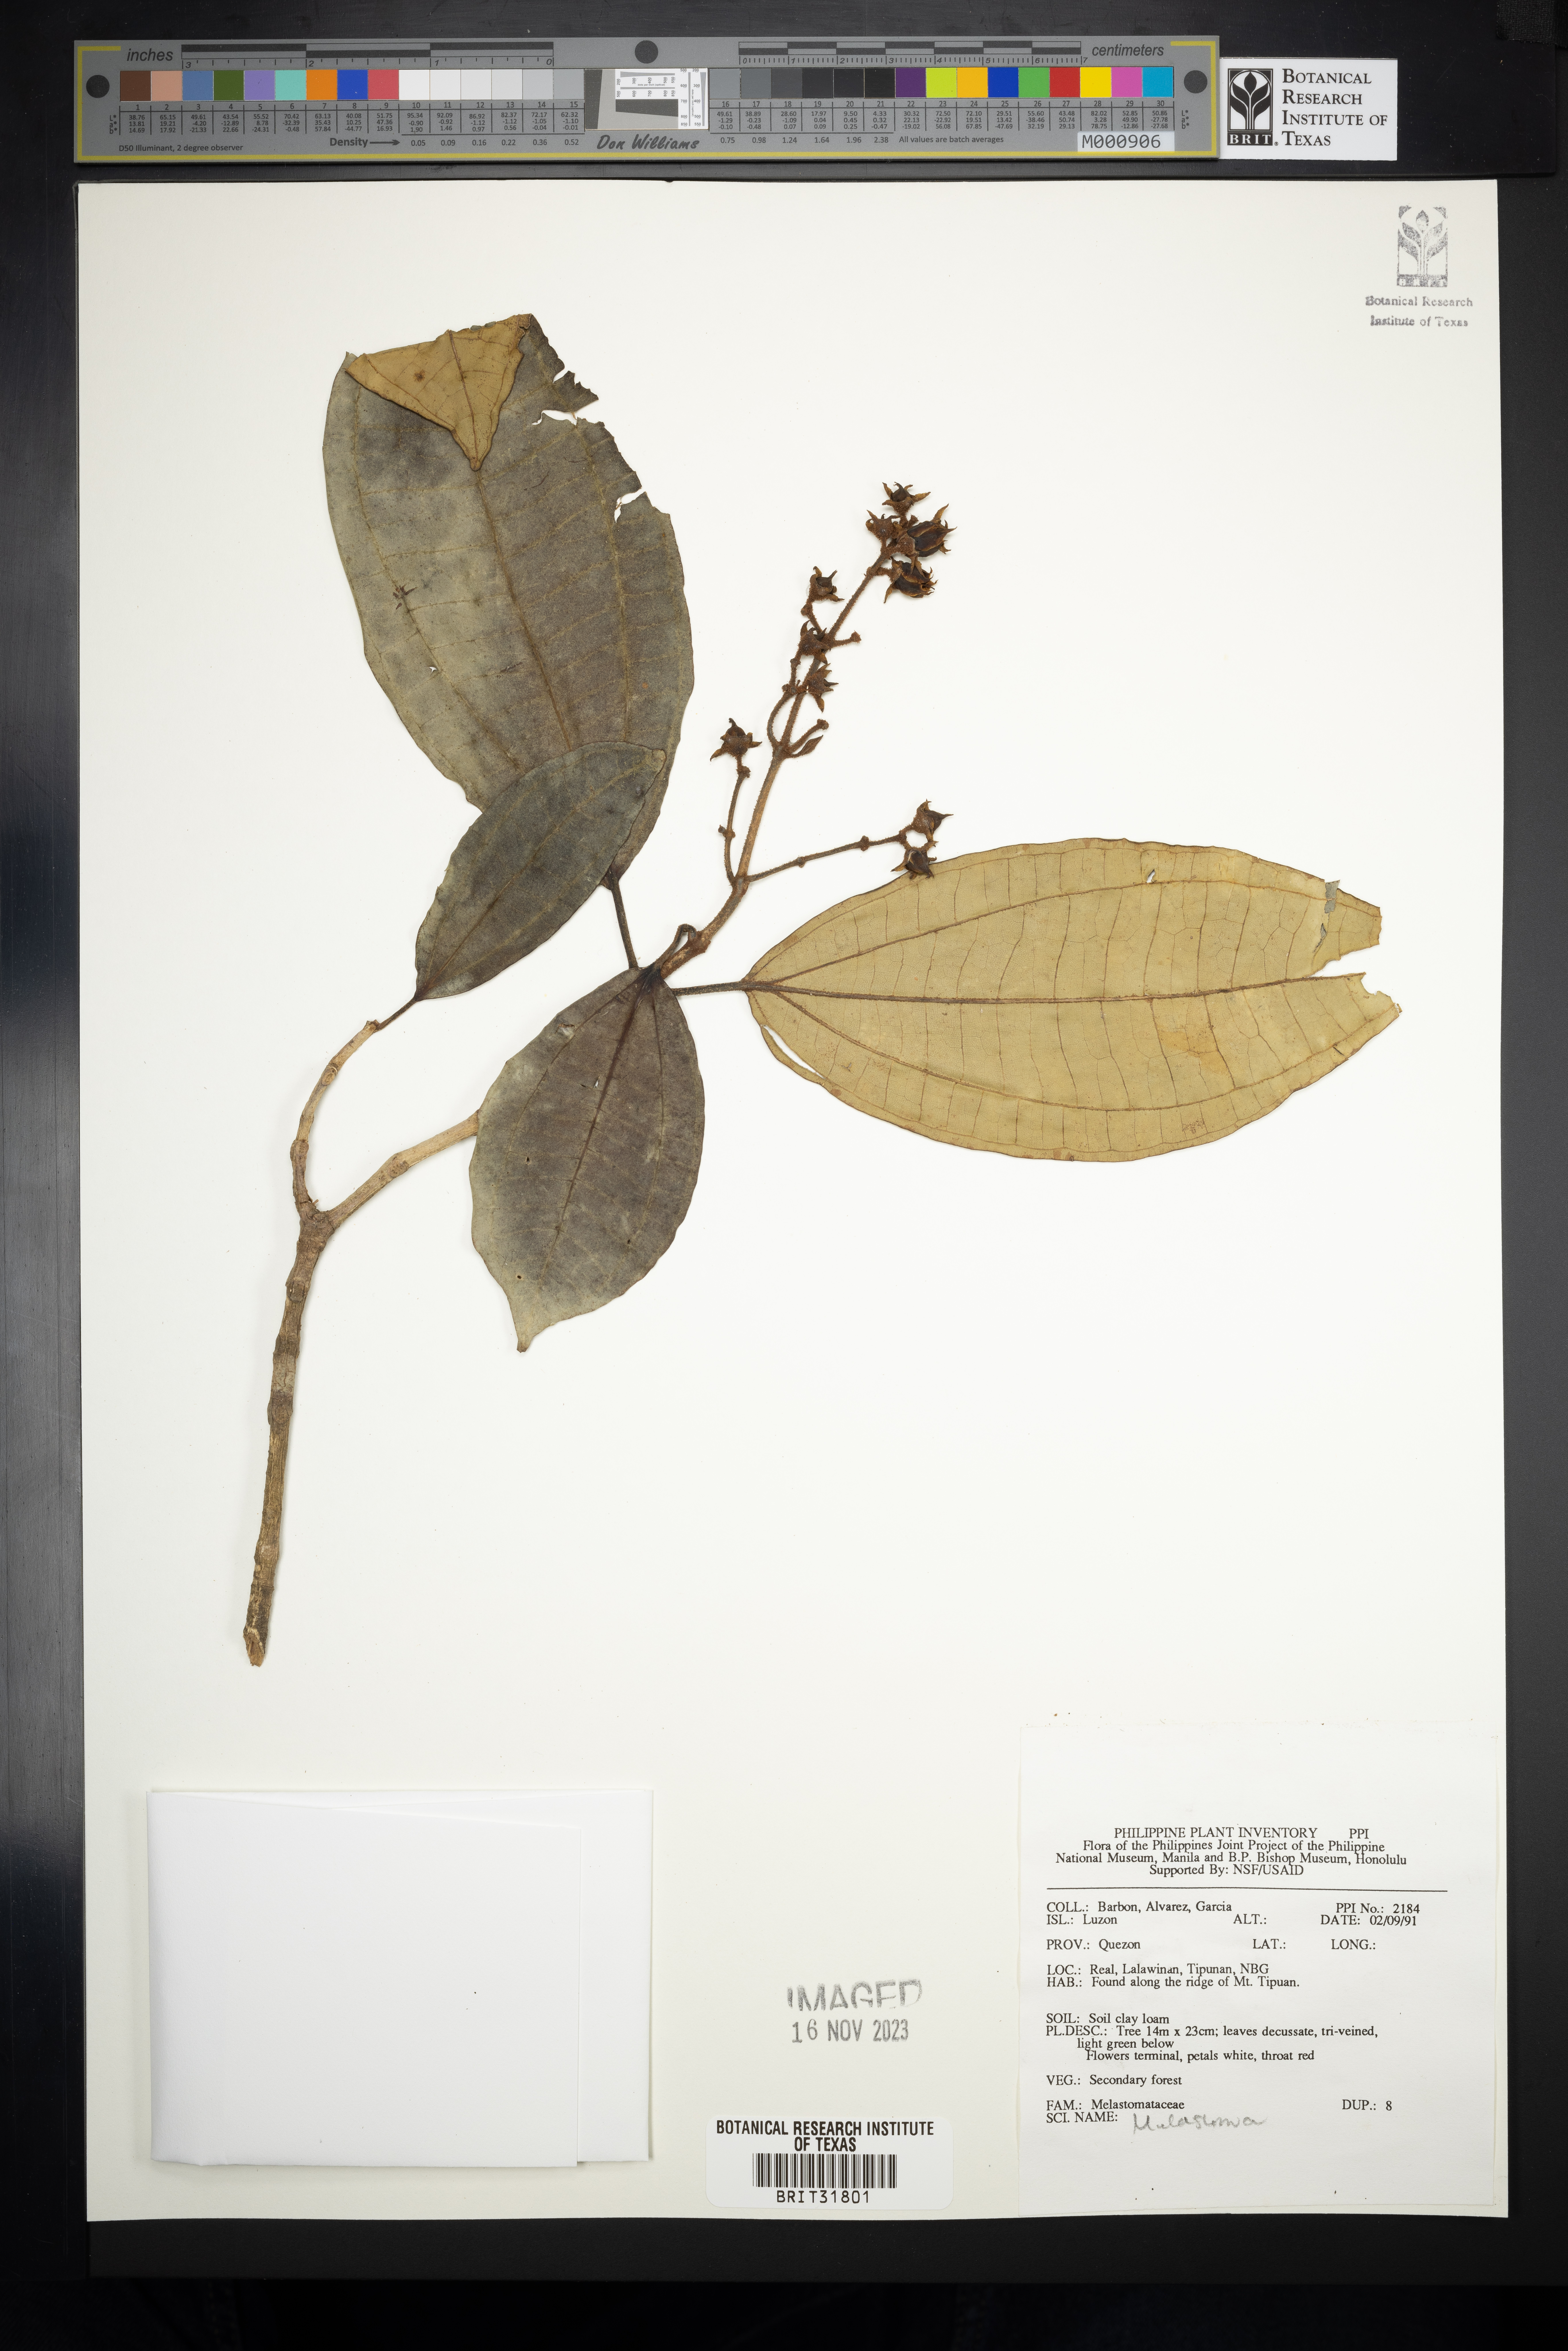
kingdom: Plantae
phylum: Tracheophyta
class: Magnoliopsida
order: Myrtales
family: Melastomataceae
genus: Melastoma
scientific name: Melastoma
